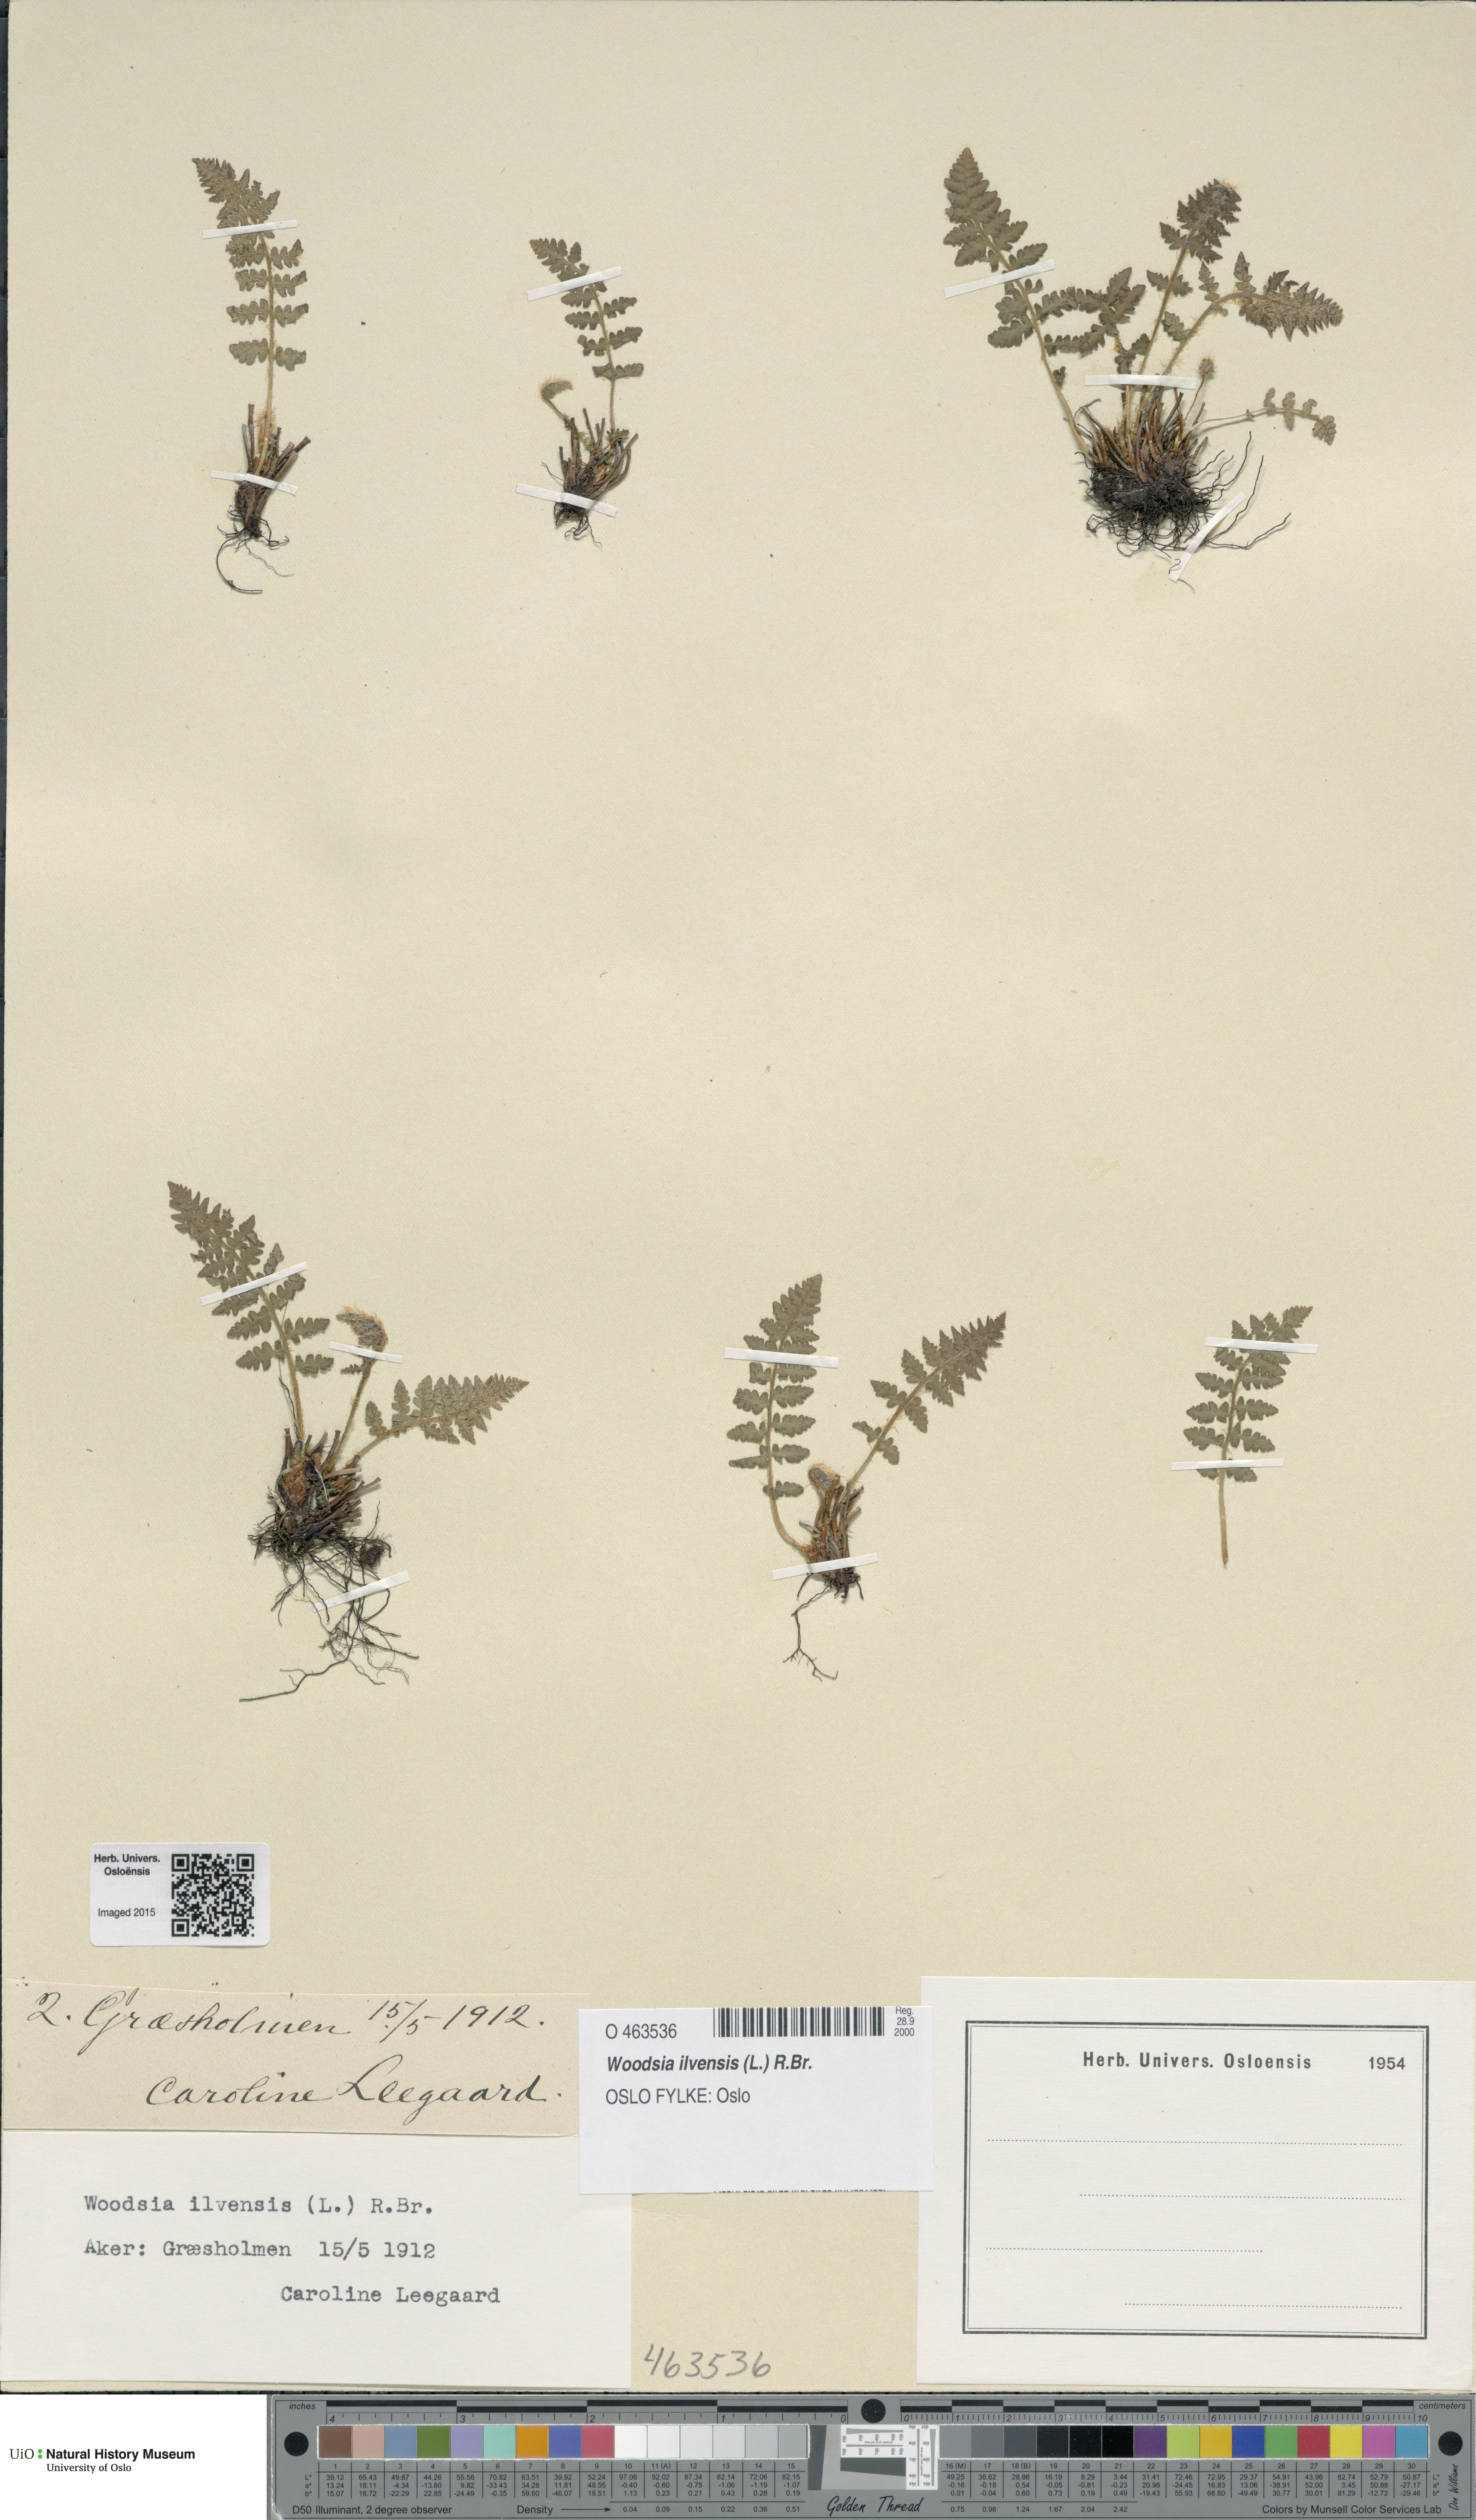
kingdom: Plantae
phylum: Tracheophyta
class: Polypodiopsida
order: Polypodiales
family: Woodsiaceae
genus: Woodsia
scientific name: Woodsia ilvensis
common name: Fragrant woodsia
